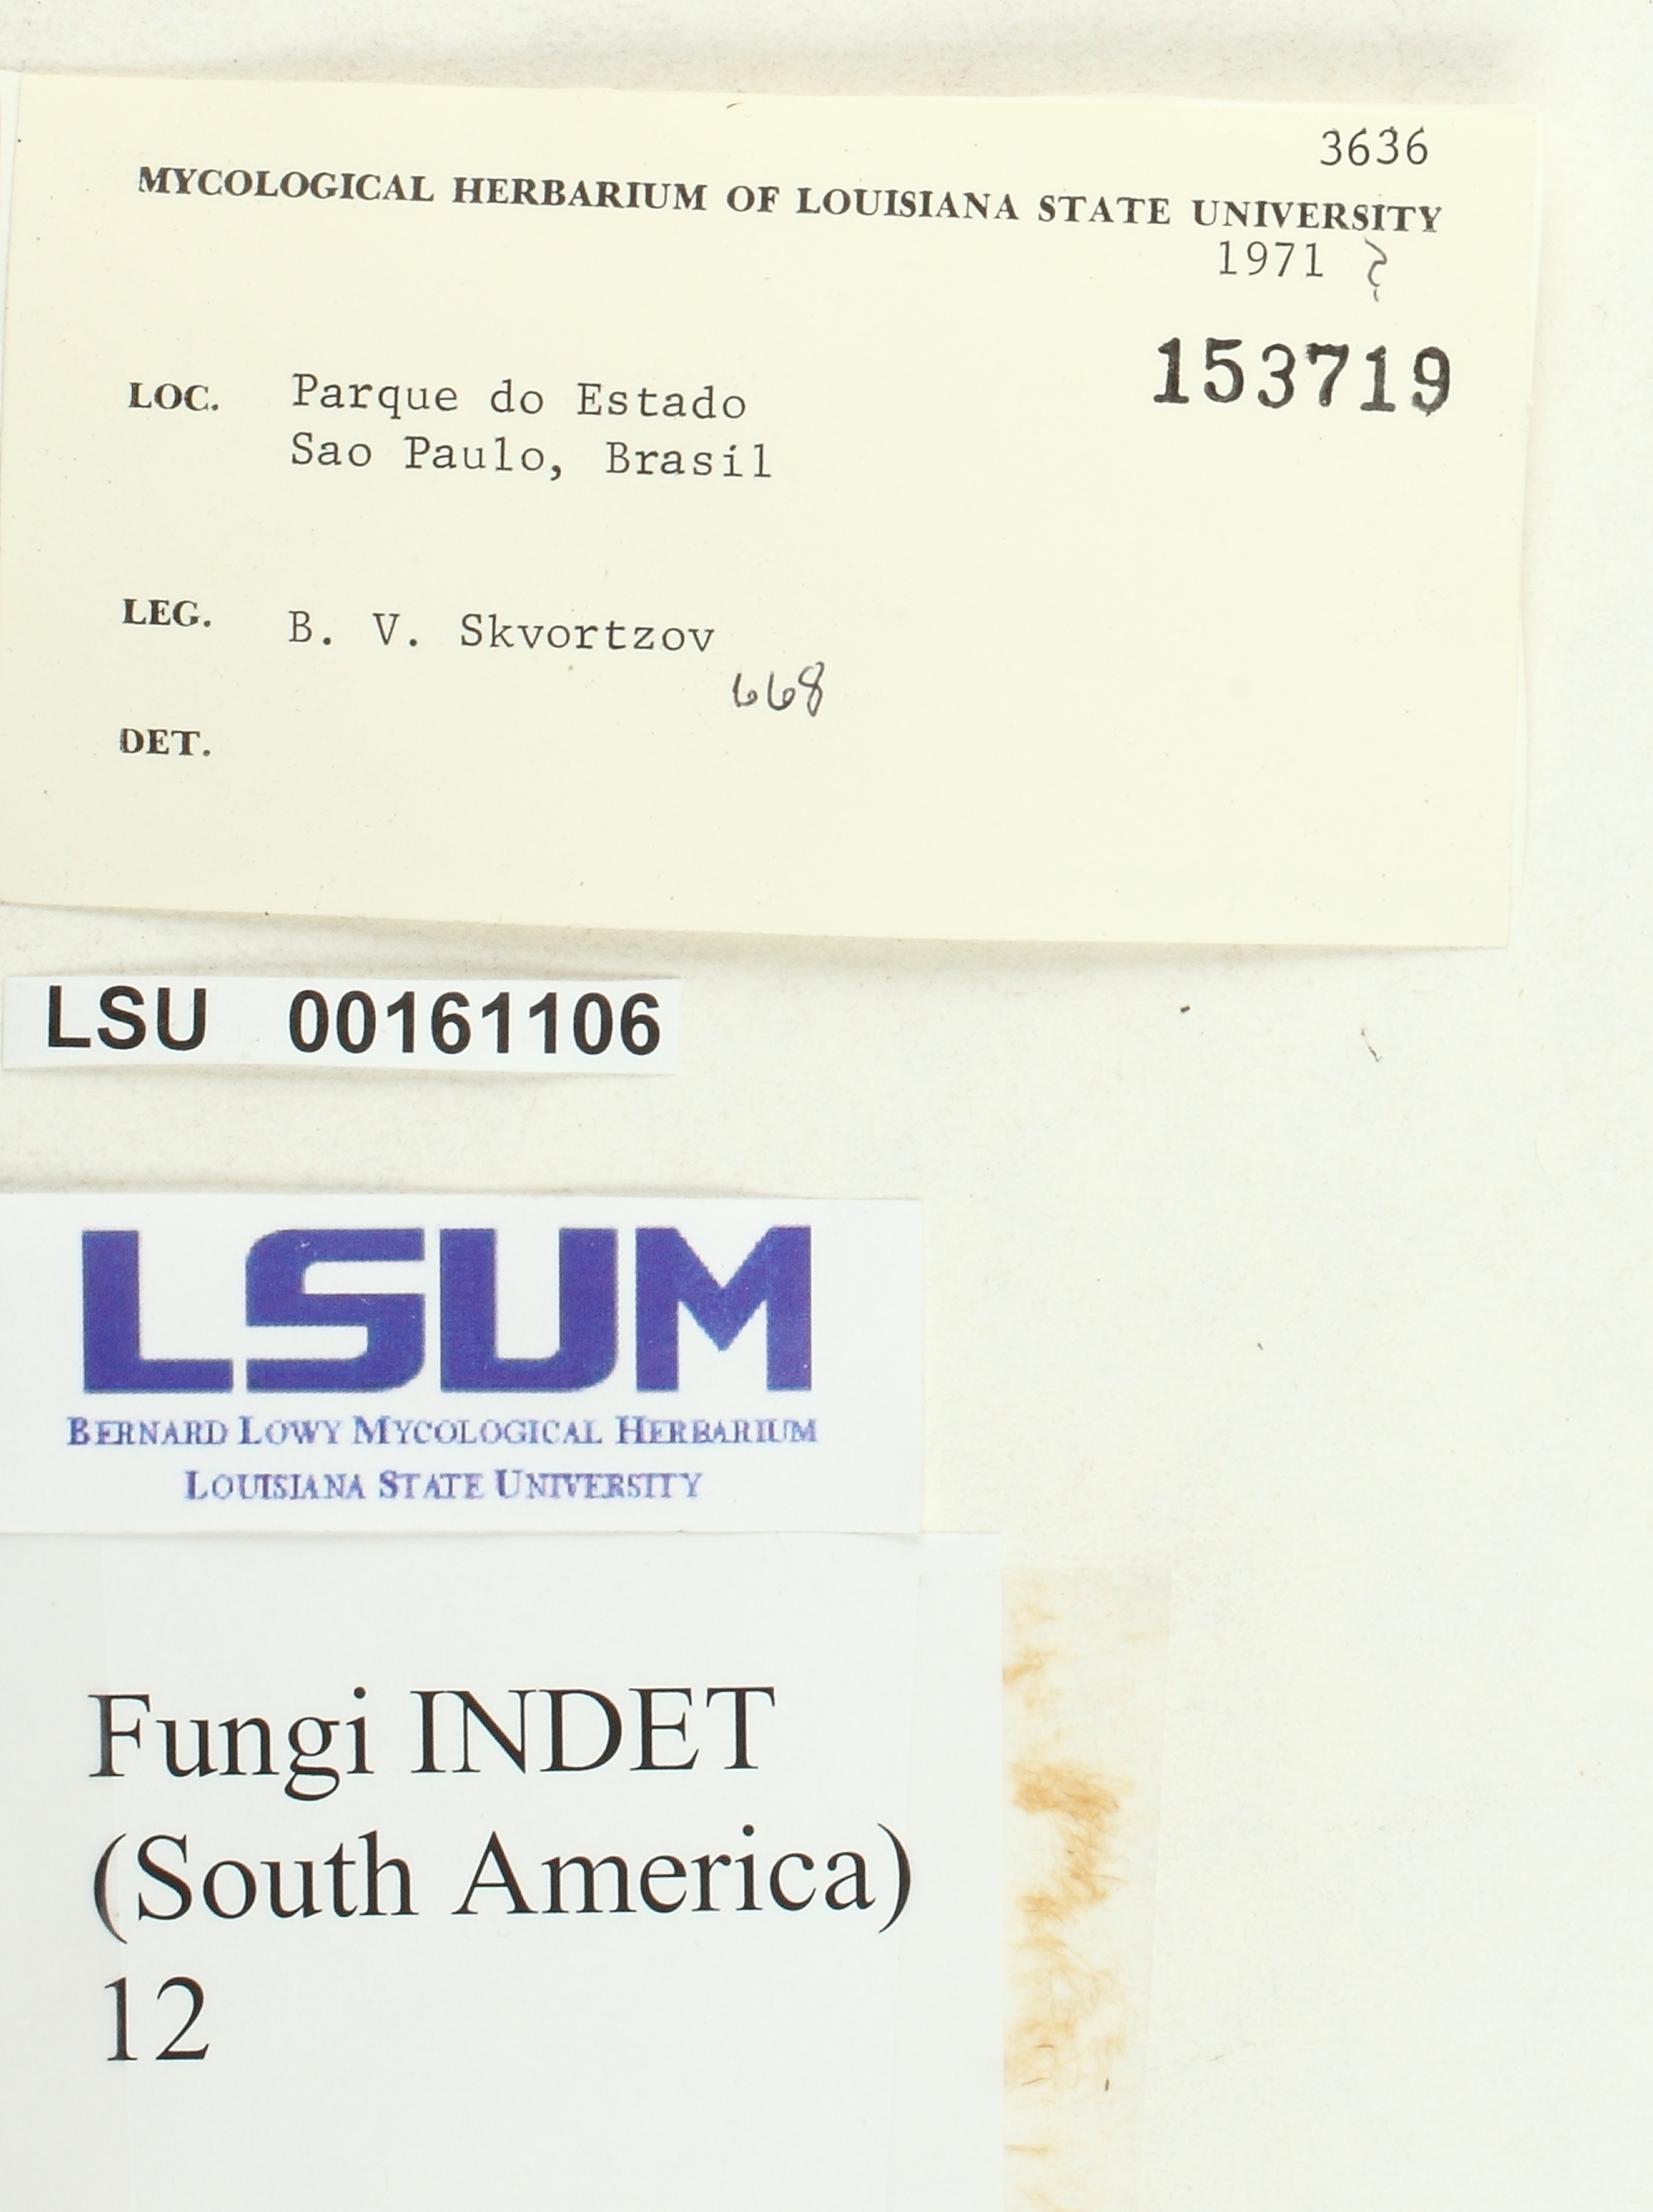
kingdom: Fungi
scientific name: Fungi
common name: Fungi
